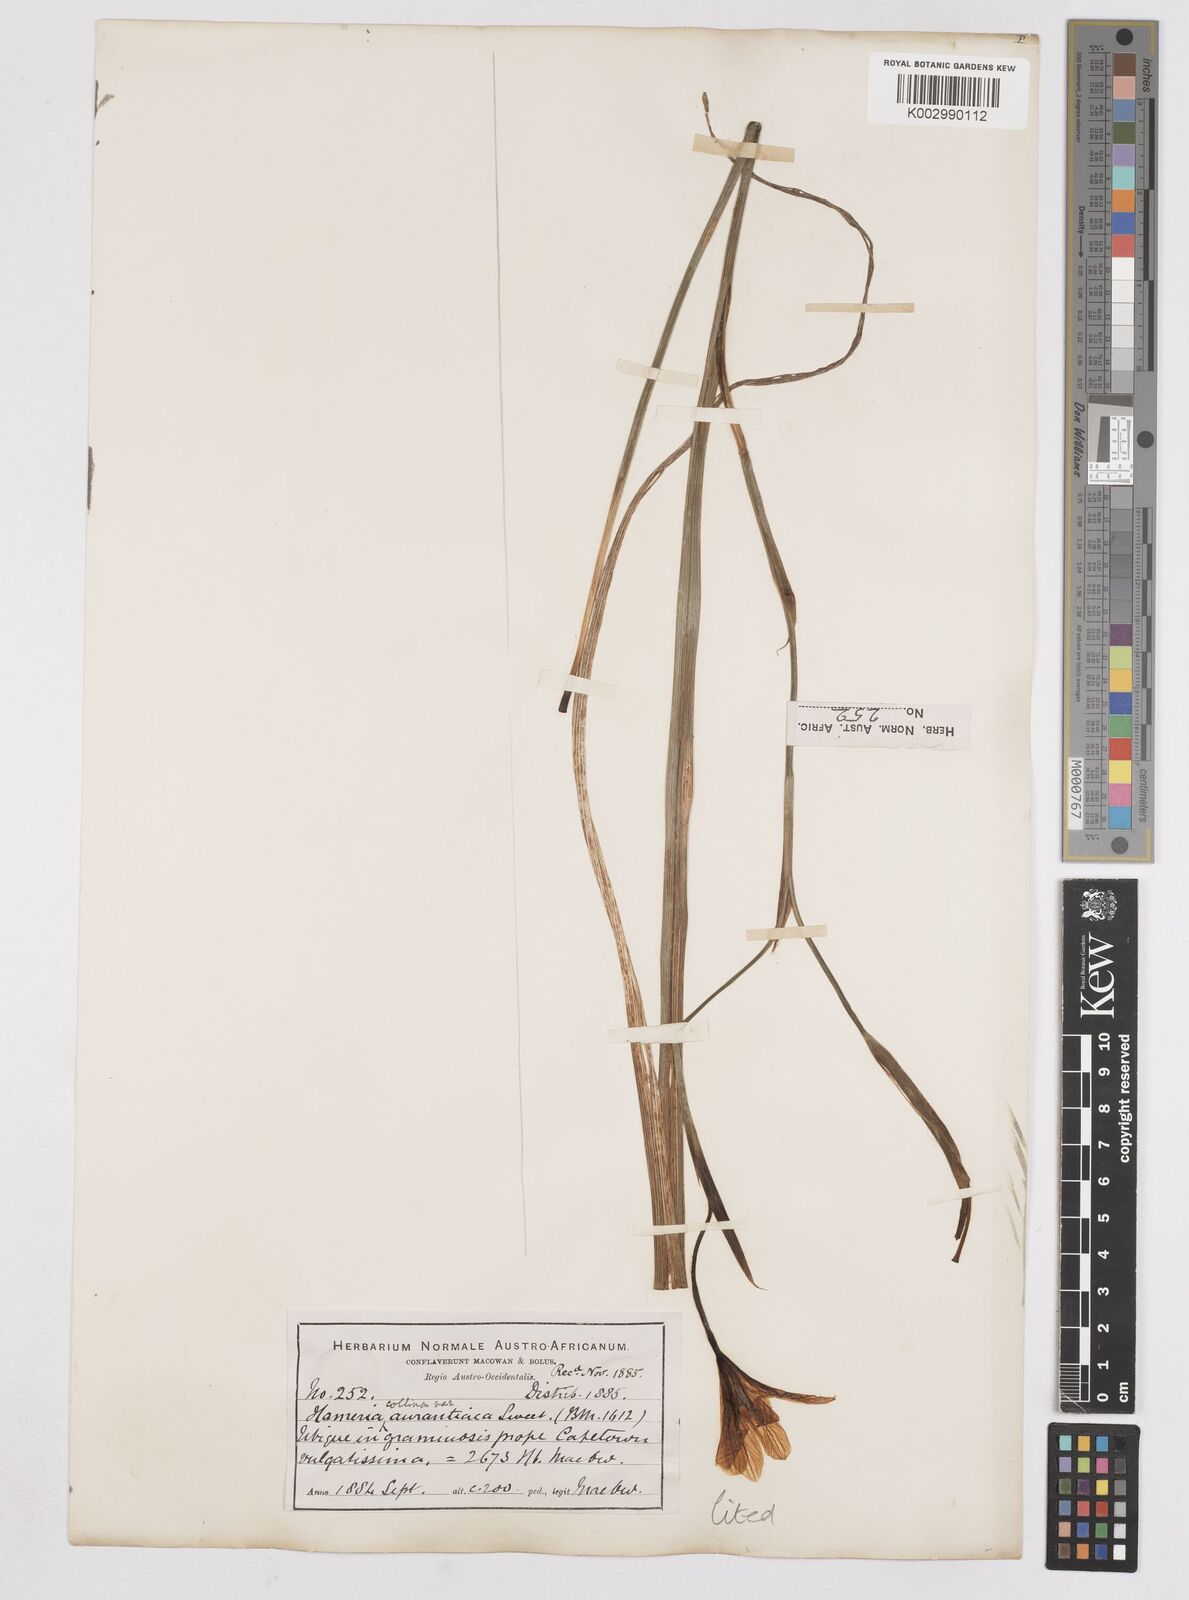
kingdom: Plantae
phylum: Tracheophyta
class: Liliopsida
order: Asparagales
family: Iridaceae
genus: Moraea
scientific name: Moraea flaccida
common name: One-leaf cape-tulip
